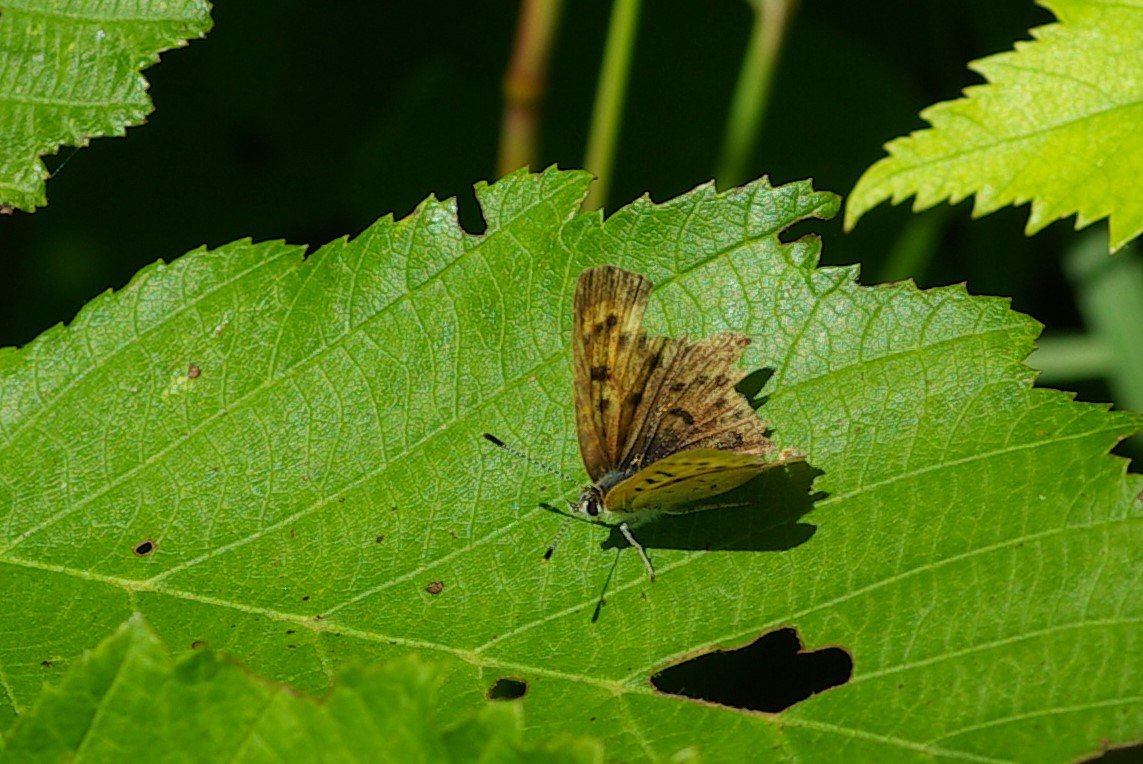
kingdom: Animalia
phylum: Arthropoda
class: Insecta
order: Lepidoptera
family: Lycaenidae
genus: Epidemia
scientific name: Epidemia dorcas
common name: Dorcas Copper
